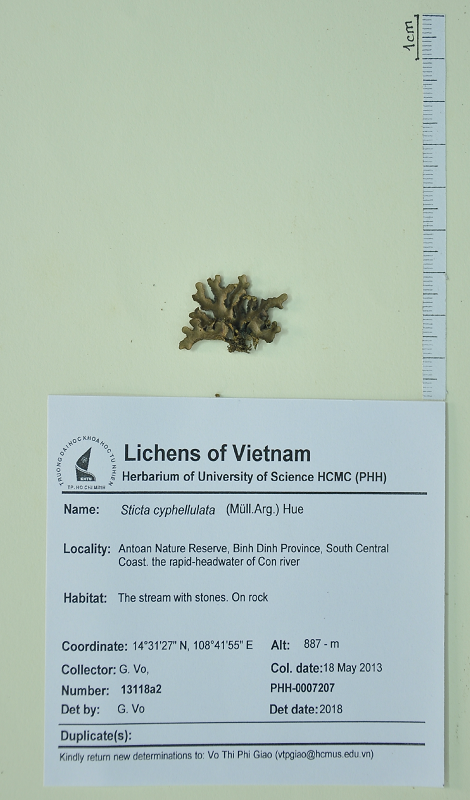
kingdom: Fungi
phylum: Ascomycota
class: Lecanoromycetes
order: Peltigerales
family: Lobariaceae
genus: Sticta
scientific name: Sticta cyphellulata
